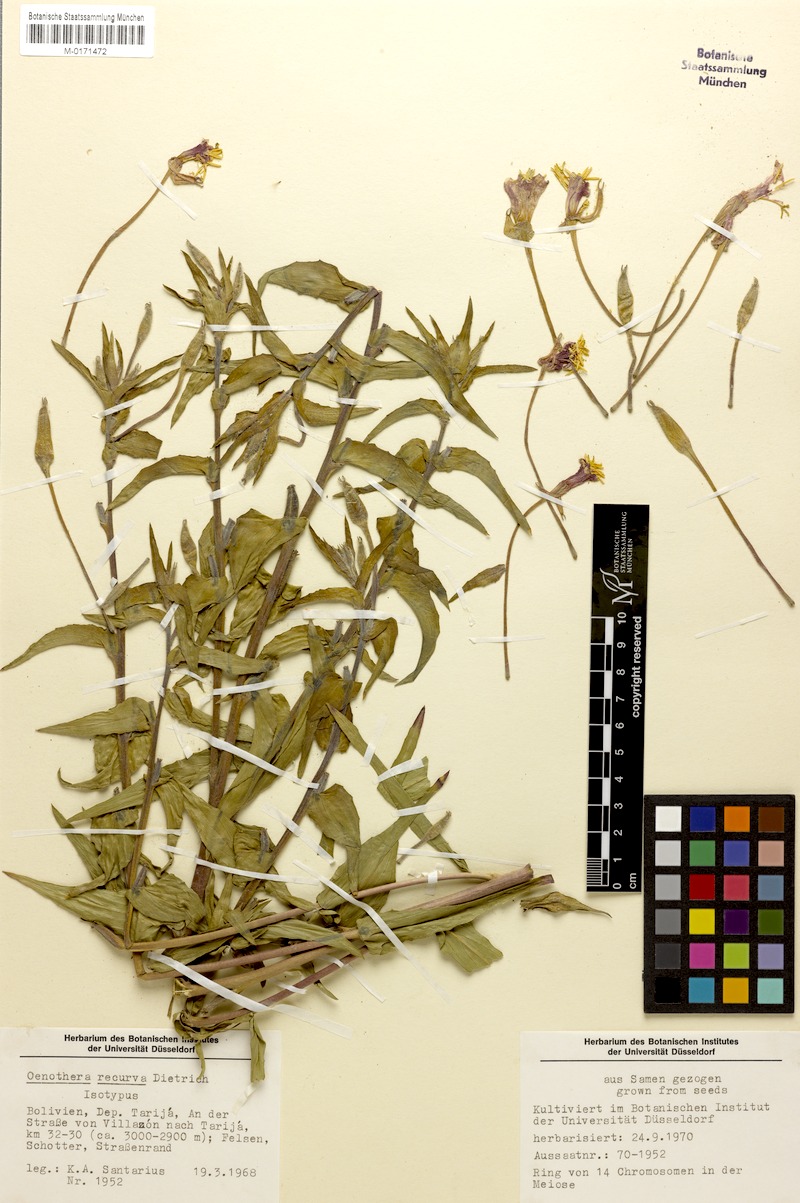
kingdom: Plantae
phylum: Tracheophyta
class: Magnoliopsida
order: Myrtales
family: Onagraceae
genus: Oenothera
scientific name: Oenothera recurva
